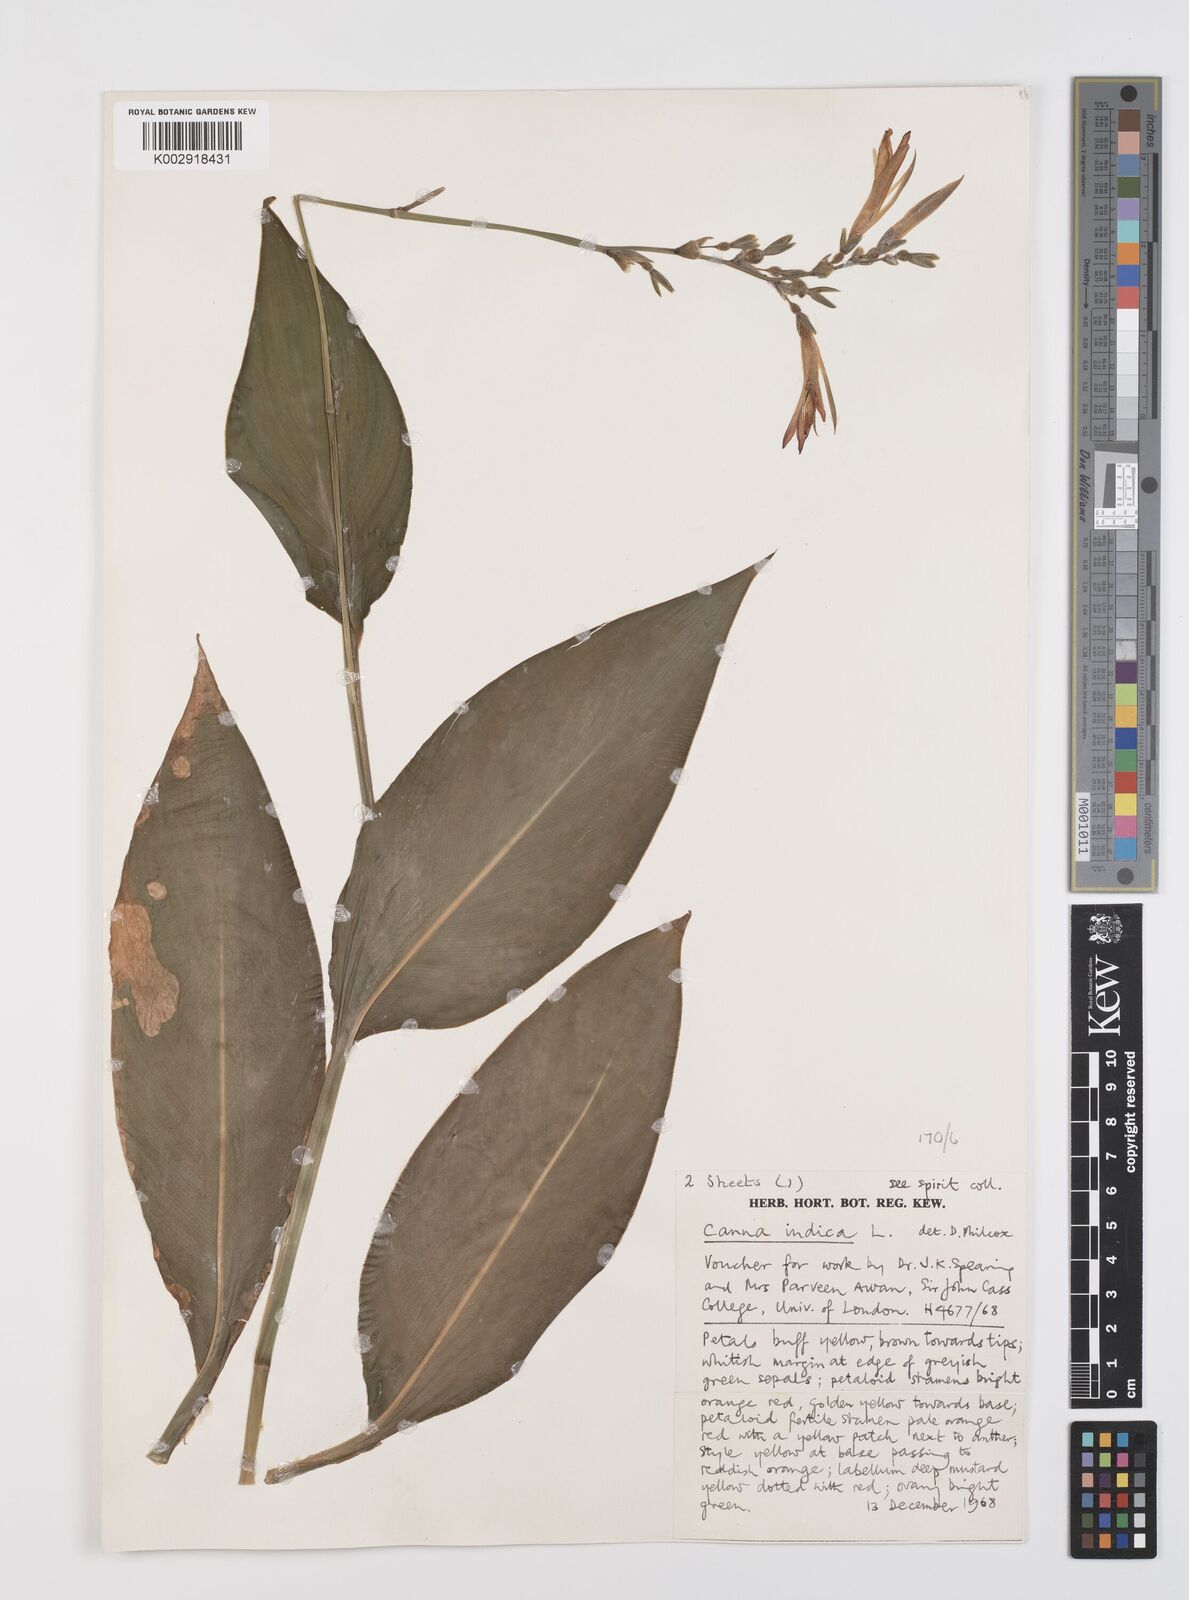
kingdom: Plantae
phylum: Tracheophyta
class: Liliopsida
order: Zingiberales
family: Cannaceae
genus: Canna
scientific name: Canna indica
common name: Indian shot
